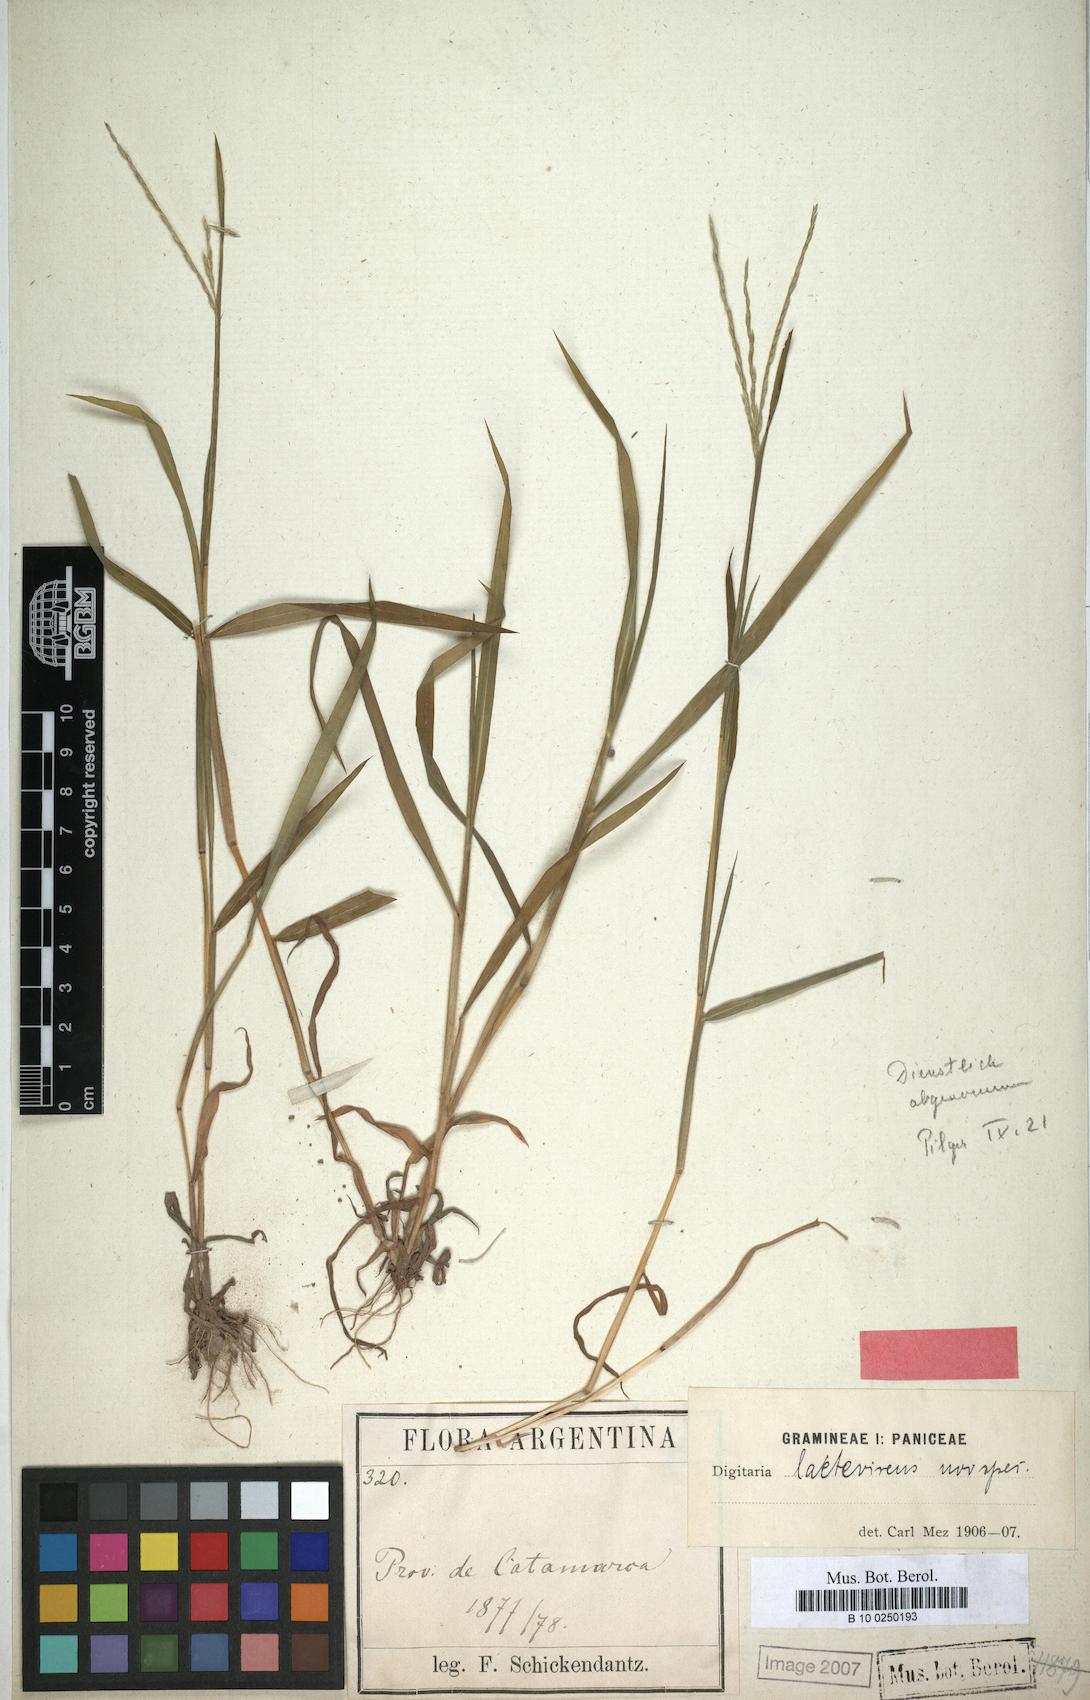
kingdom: Plantae
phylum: Tracheophyta
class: Liliopsida
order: Poales
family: Poaceae
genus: Digitaria
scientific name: Digitaria aequiglumis
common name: Argentinian crabgrass
